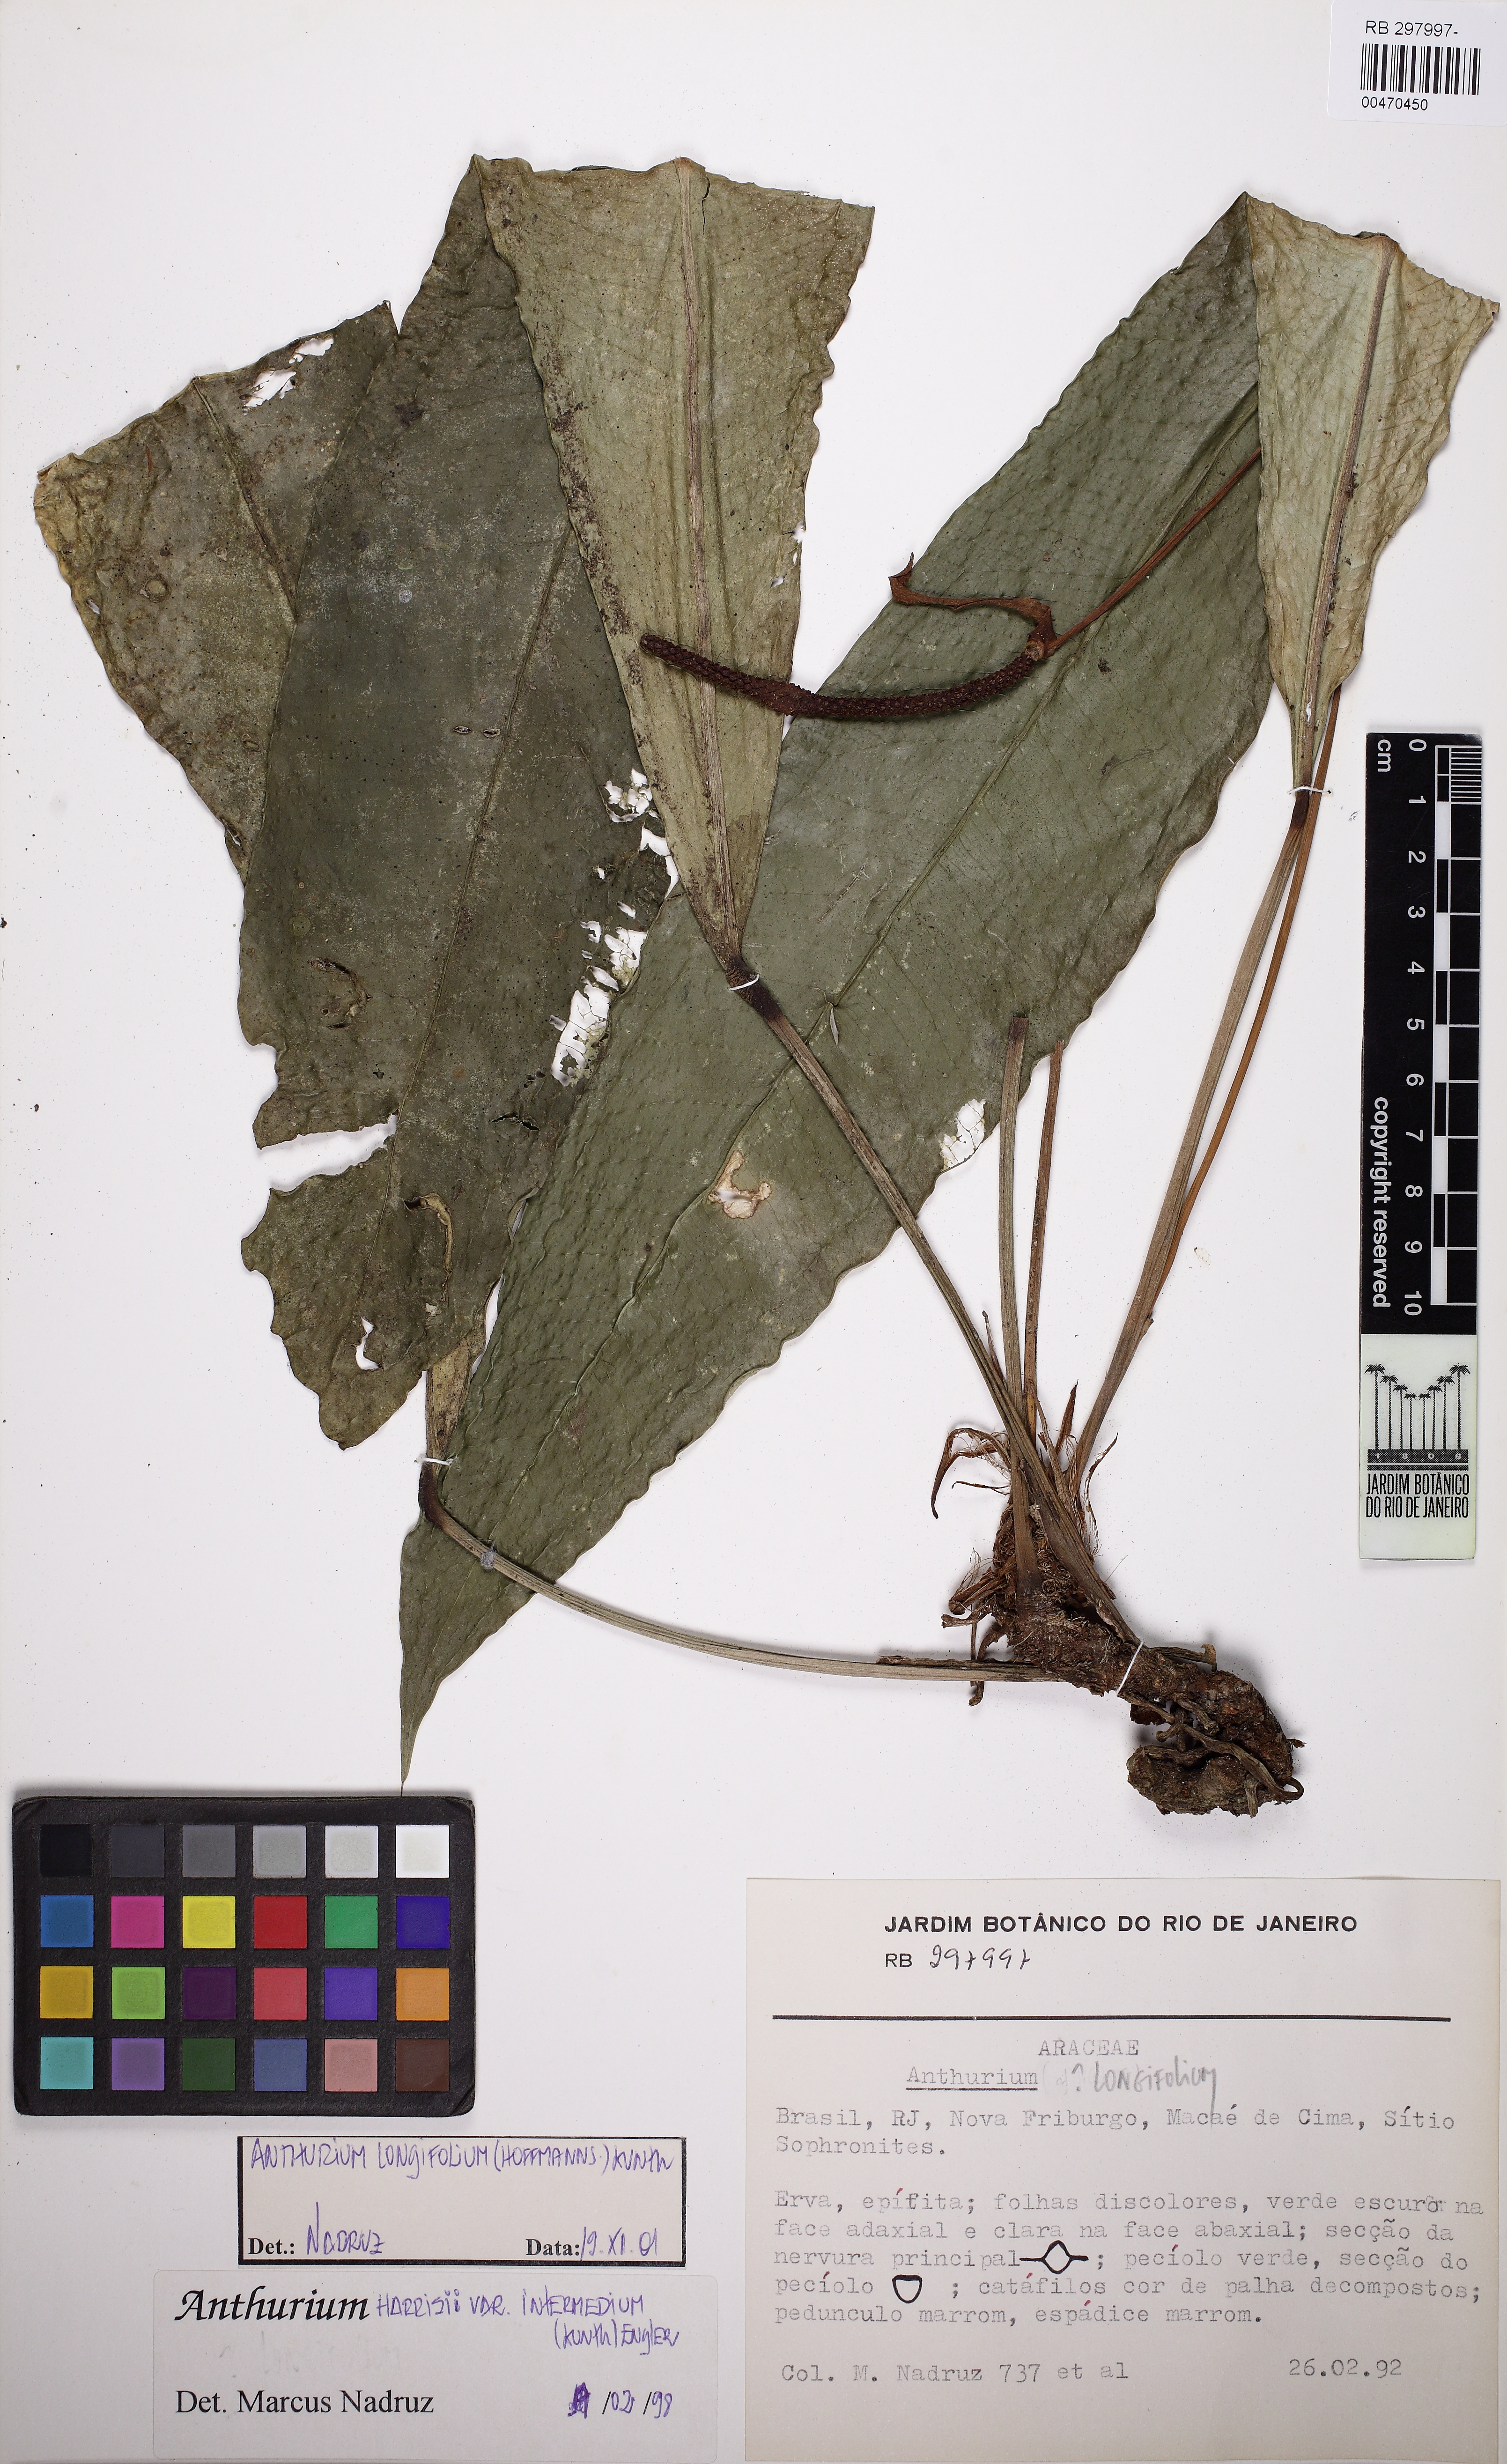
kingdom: Plantae
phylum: Tracheophyta
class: Liliopsida
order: Alismatales
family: Araceae
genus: Anthurium
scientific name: Anthurium longifolium
